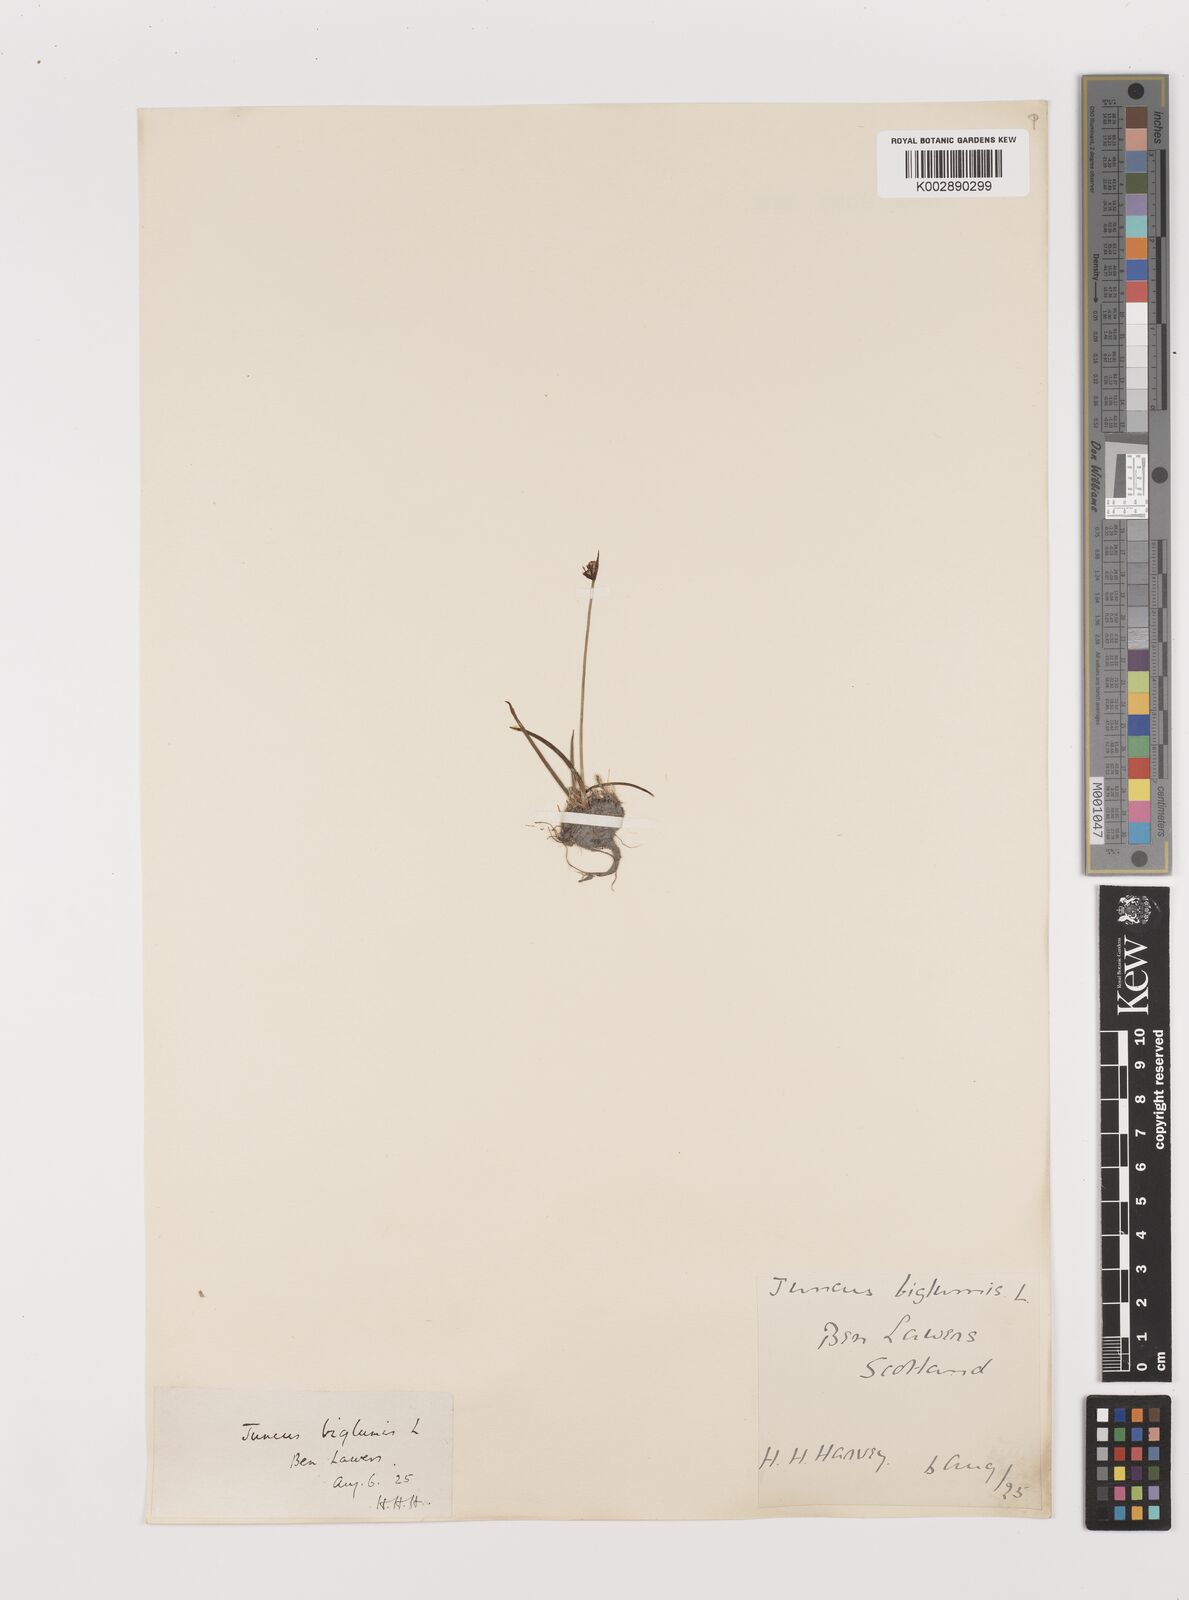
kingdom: Plantae
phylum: Tracheophyta
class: Liliopsida
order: Poales
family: Juncaceae
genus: Juncus
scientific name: Juncus biglumis
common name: Two-flowered rush
